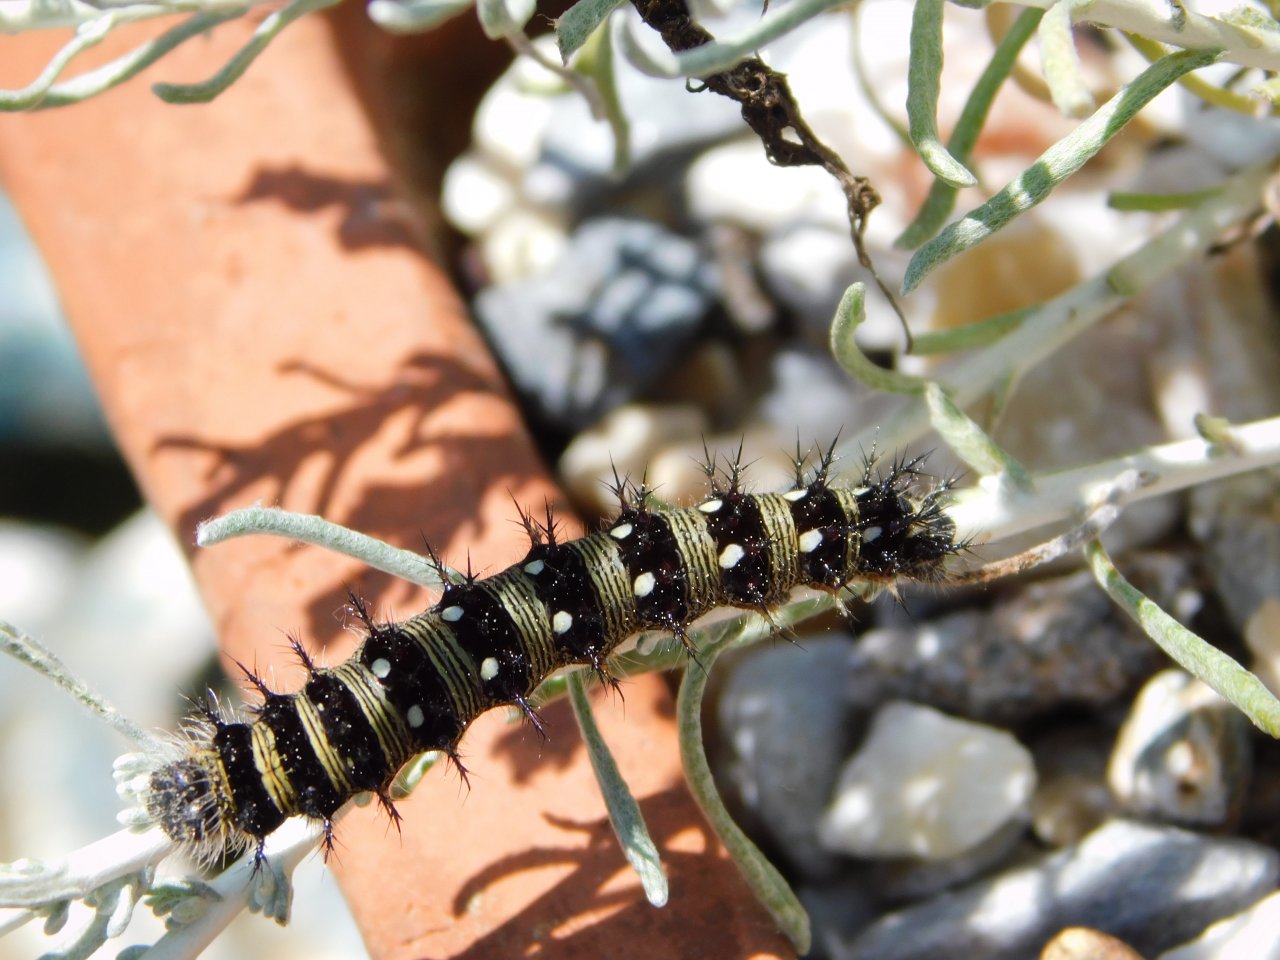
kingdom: Animalia
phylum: Arthropoda
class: Insecta
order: Lepidoptera
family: Nymphalidae
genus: Vanessa
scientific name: Vanessa virginiensis
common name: American Lady
